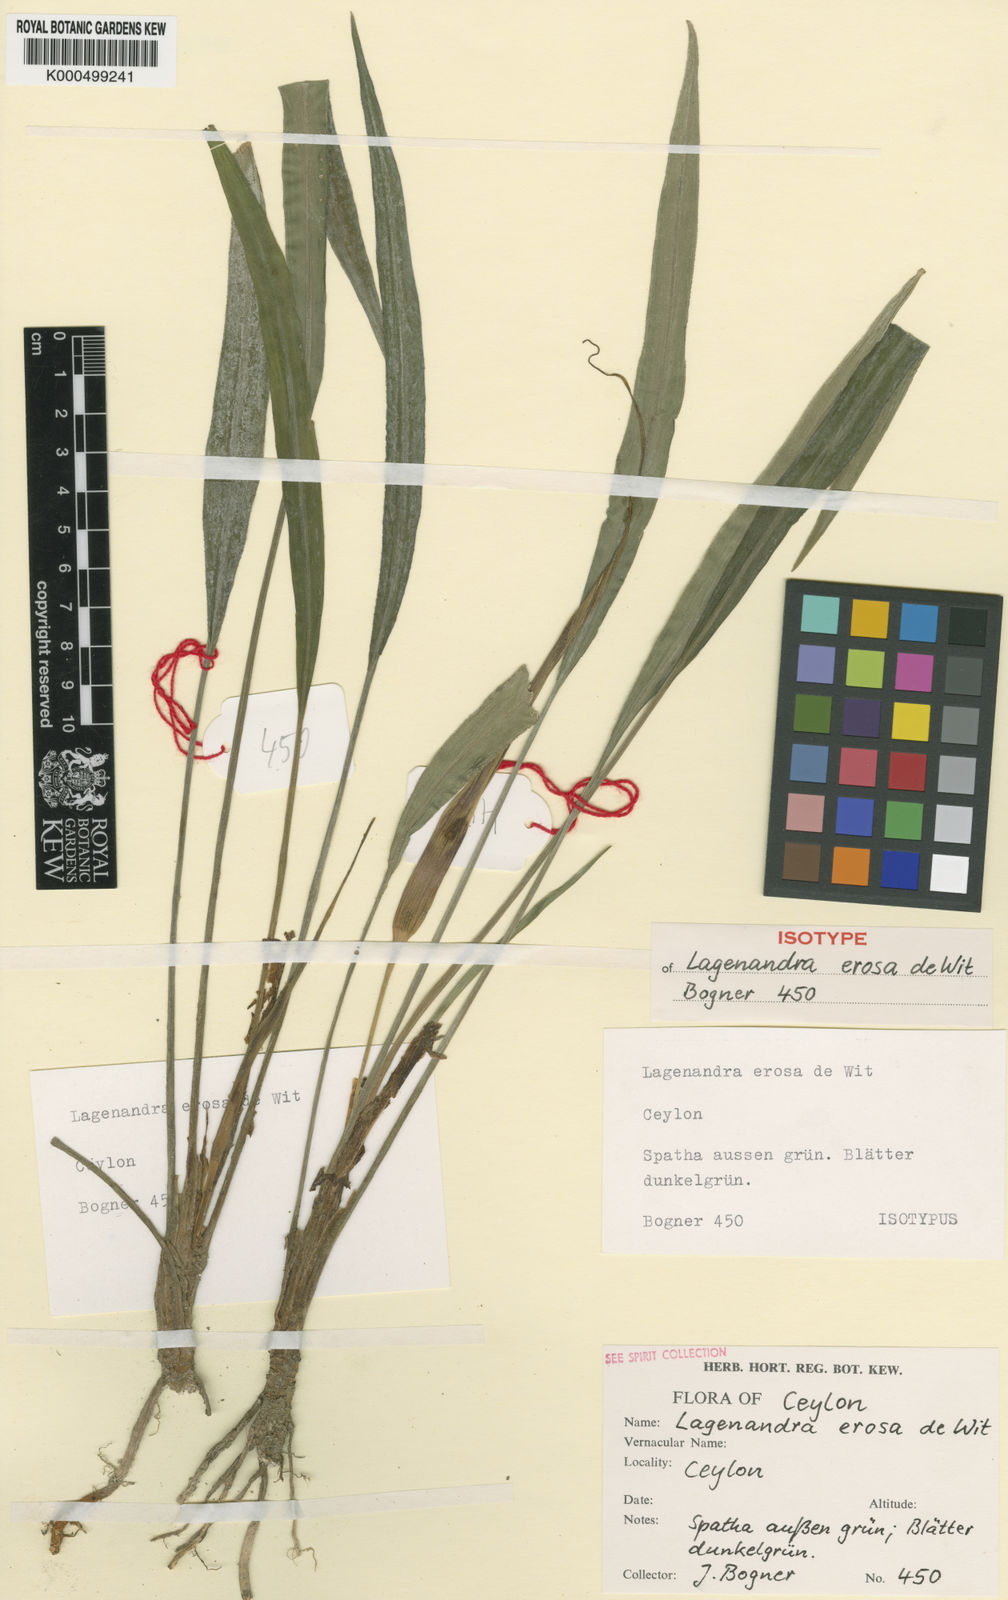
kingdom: Plantae
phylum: Tracheophyta
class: Liliopsida
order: Alismatales
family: Araceae
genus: Lagenandra
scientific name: Lagenandra erosa
